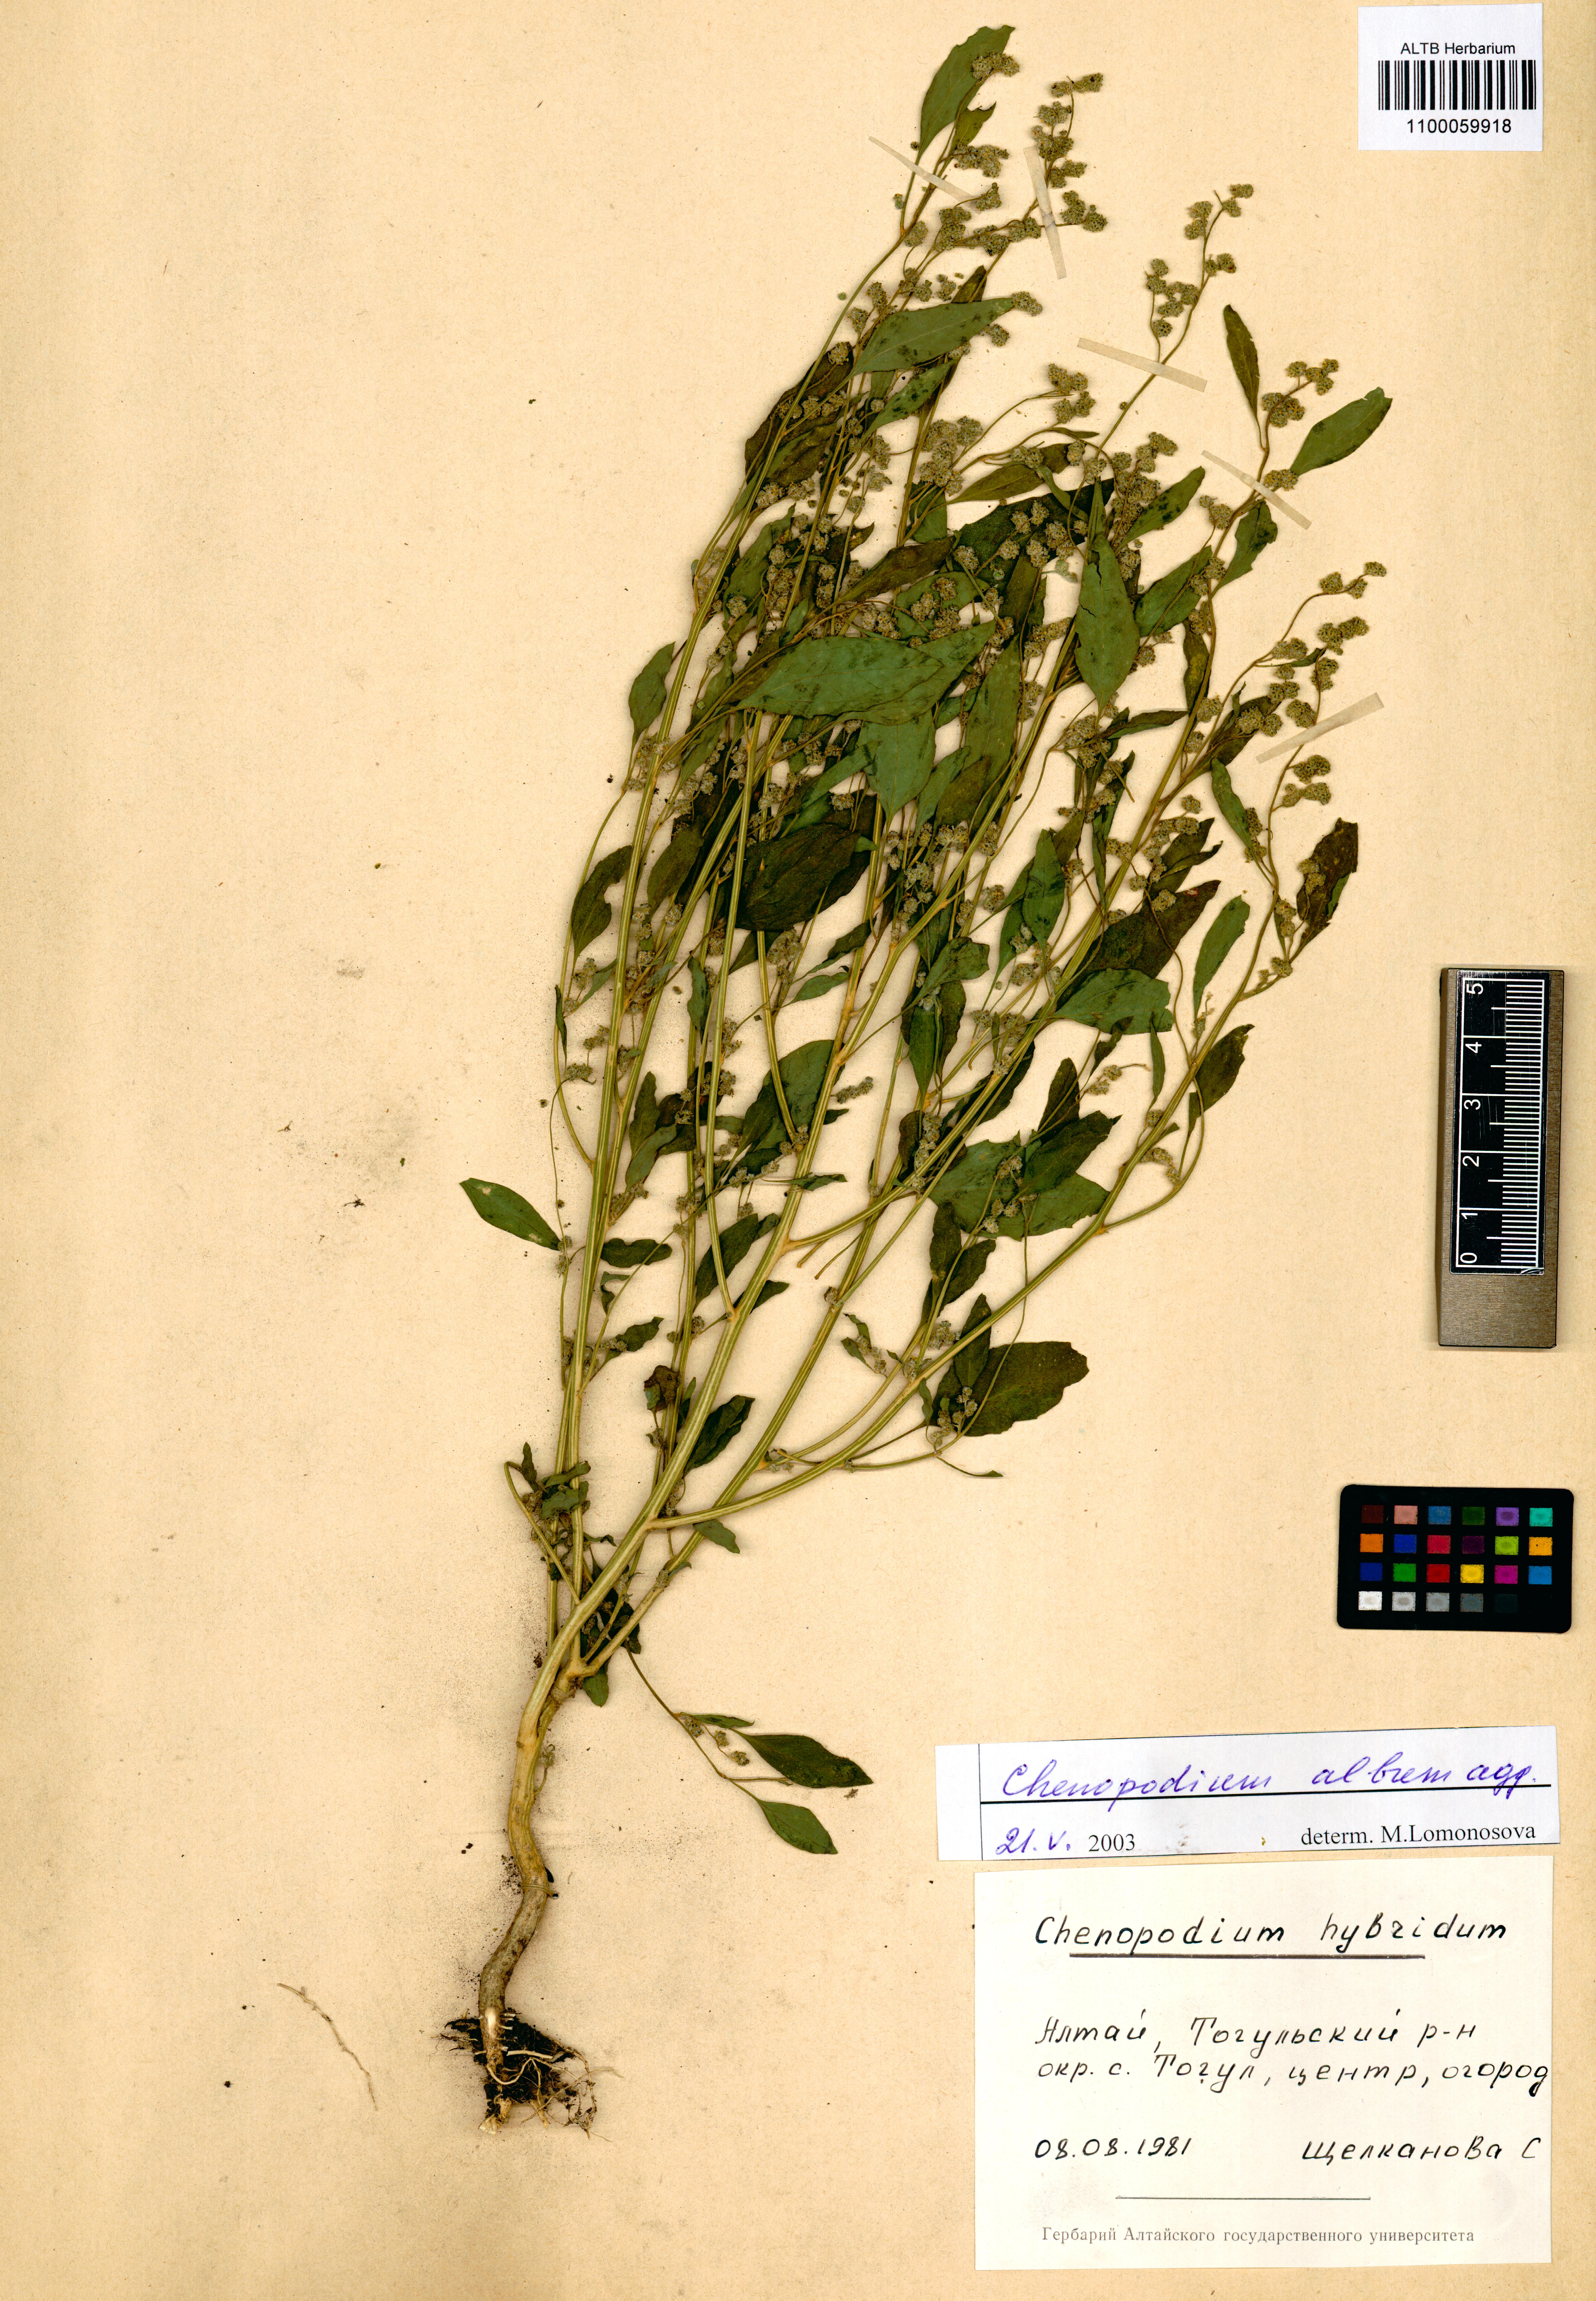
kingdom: Plantae
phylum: Tracheophyta
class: Magnoliopsida
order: Caryophyllales
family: Amaranthaceae
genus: Chenopodium
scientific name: Chenopodium album
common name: Fat-hen
